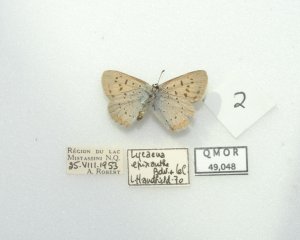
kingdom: Animalia
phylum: Arthropoda
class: Insecta
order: Lepidoptera
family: Sesiidae
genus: Sesia
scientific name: Sesia Lycaena epixanthe
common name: Bog Copper
